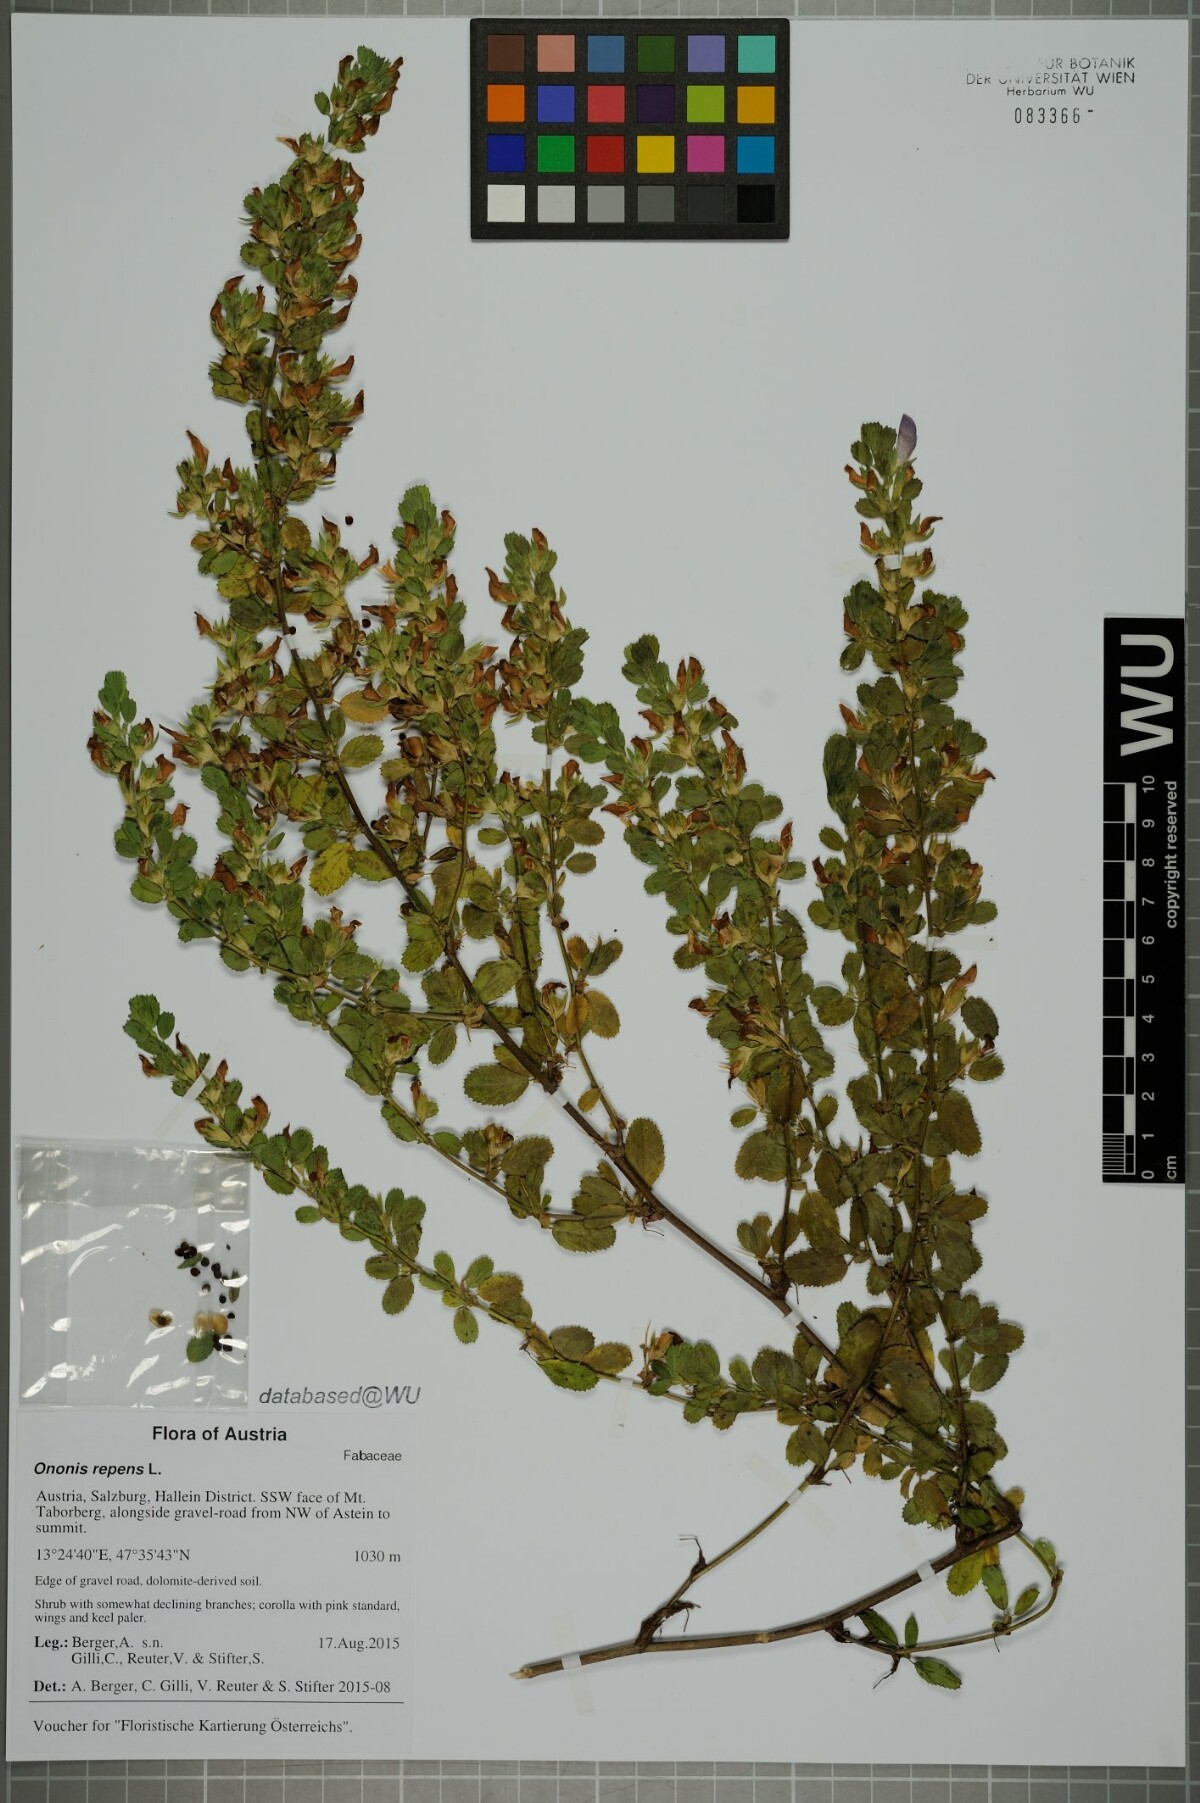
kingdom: Plantae
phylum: Tracheophyta
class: Magnoliopsida
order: Fabales
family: Fabaceae
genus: Ononis
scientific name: Ononis spinosa
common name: Spiny restharrow
